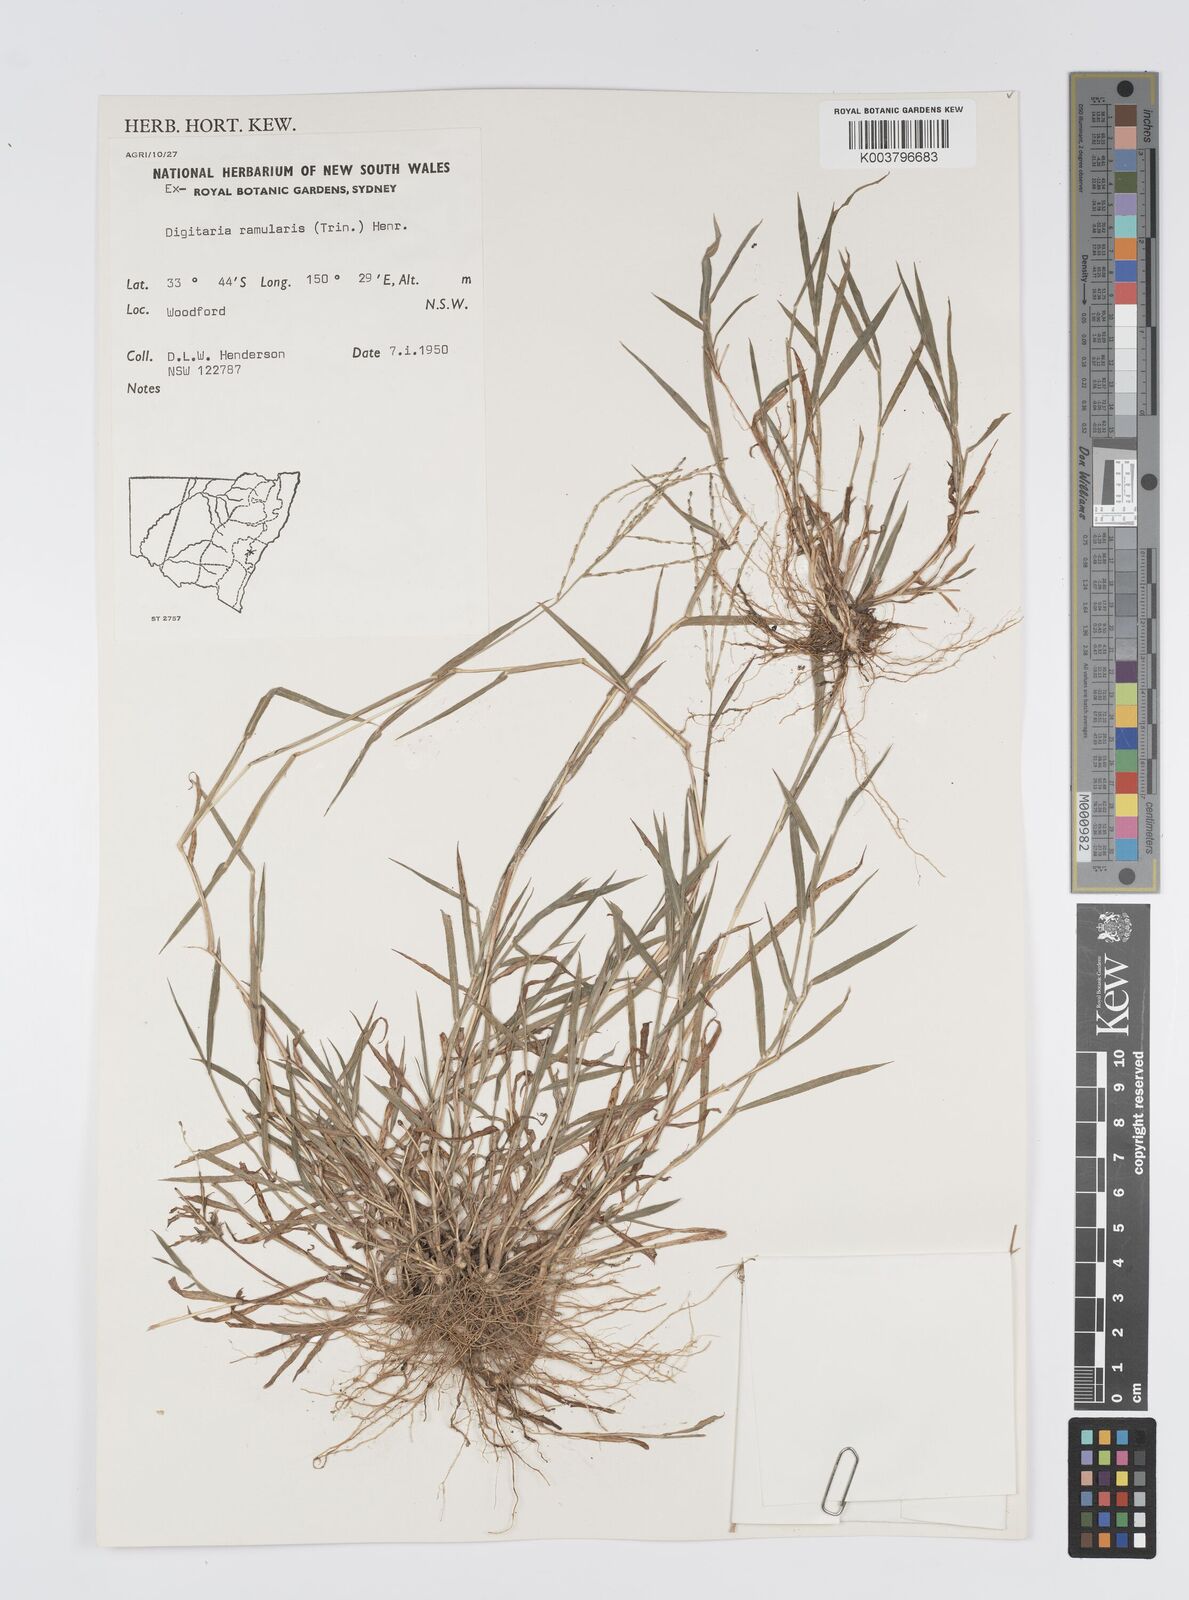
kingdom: Plantae
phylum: Tracheophyta
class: Liliopsida
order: Poales
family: Poaceae
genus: Digitaria
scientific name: Digitaria ramularis
